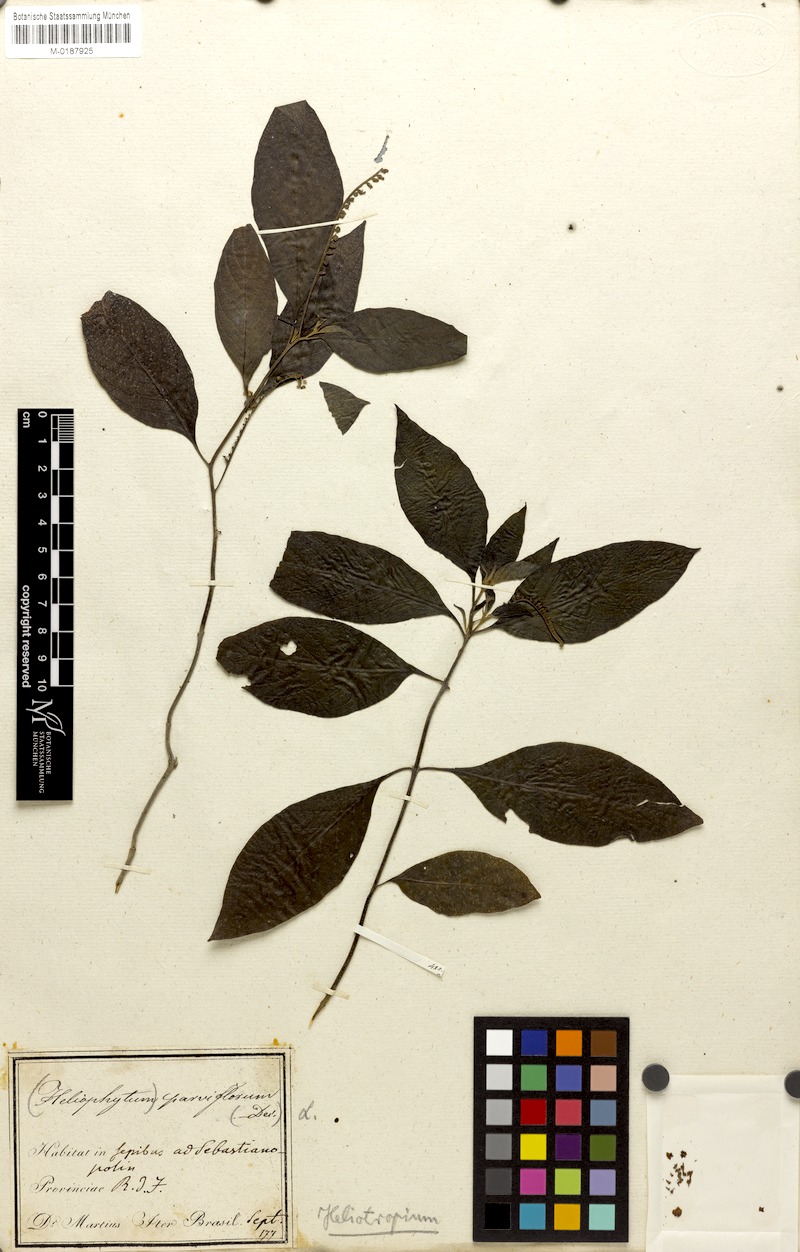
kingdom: Plantae
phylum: Tracheophyta
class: Magnoliopsida
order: Boraginales
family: Heliotropiaceae
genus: Heliotropium
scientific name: Heliotropium angiospermum
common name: Eye bright
